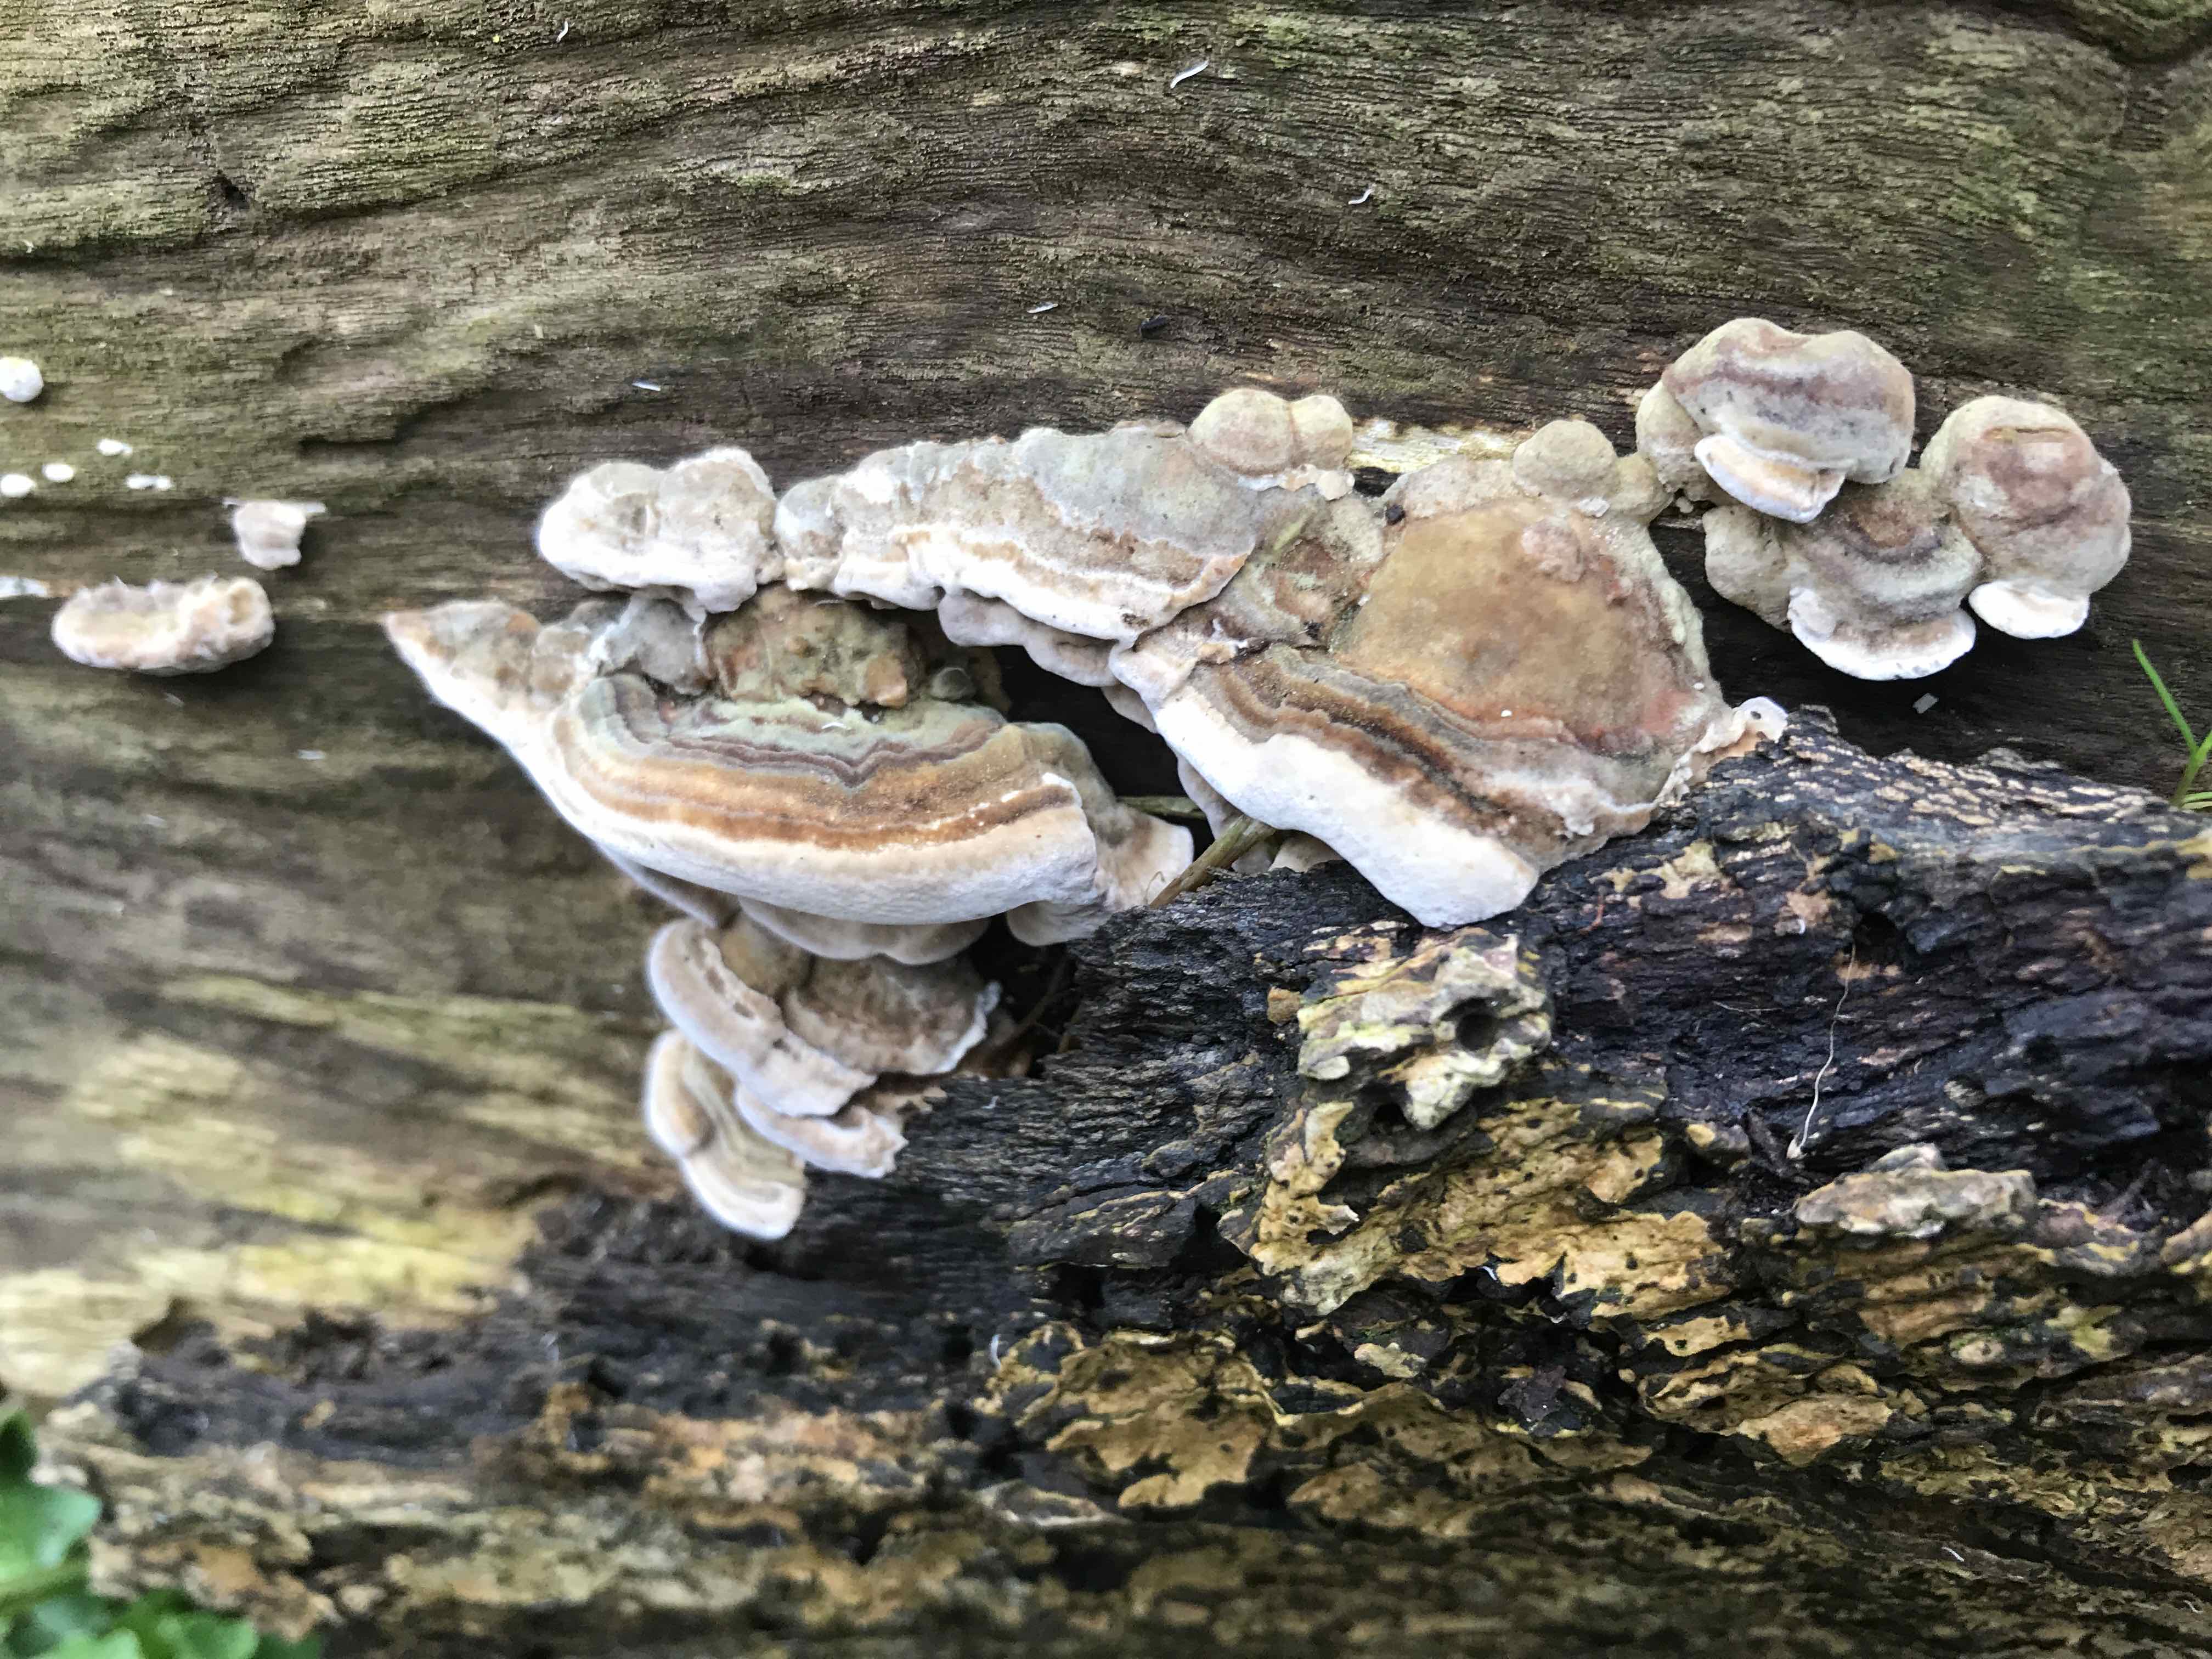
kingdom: Fungi
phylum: Basidiomycota
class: Agaricomycetes
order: Polyporales
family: Phanerochaetaceae
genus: Bjerkandera
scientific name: Bjerkandera fumosa
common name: grågul sodporesvamp
